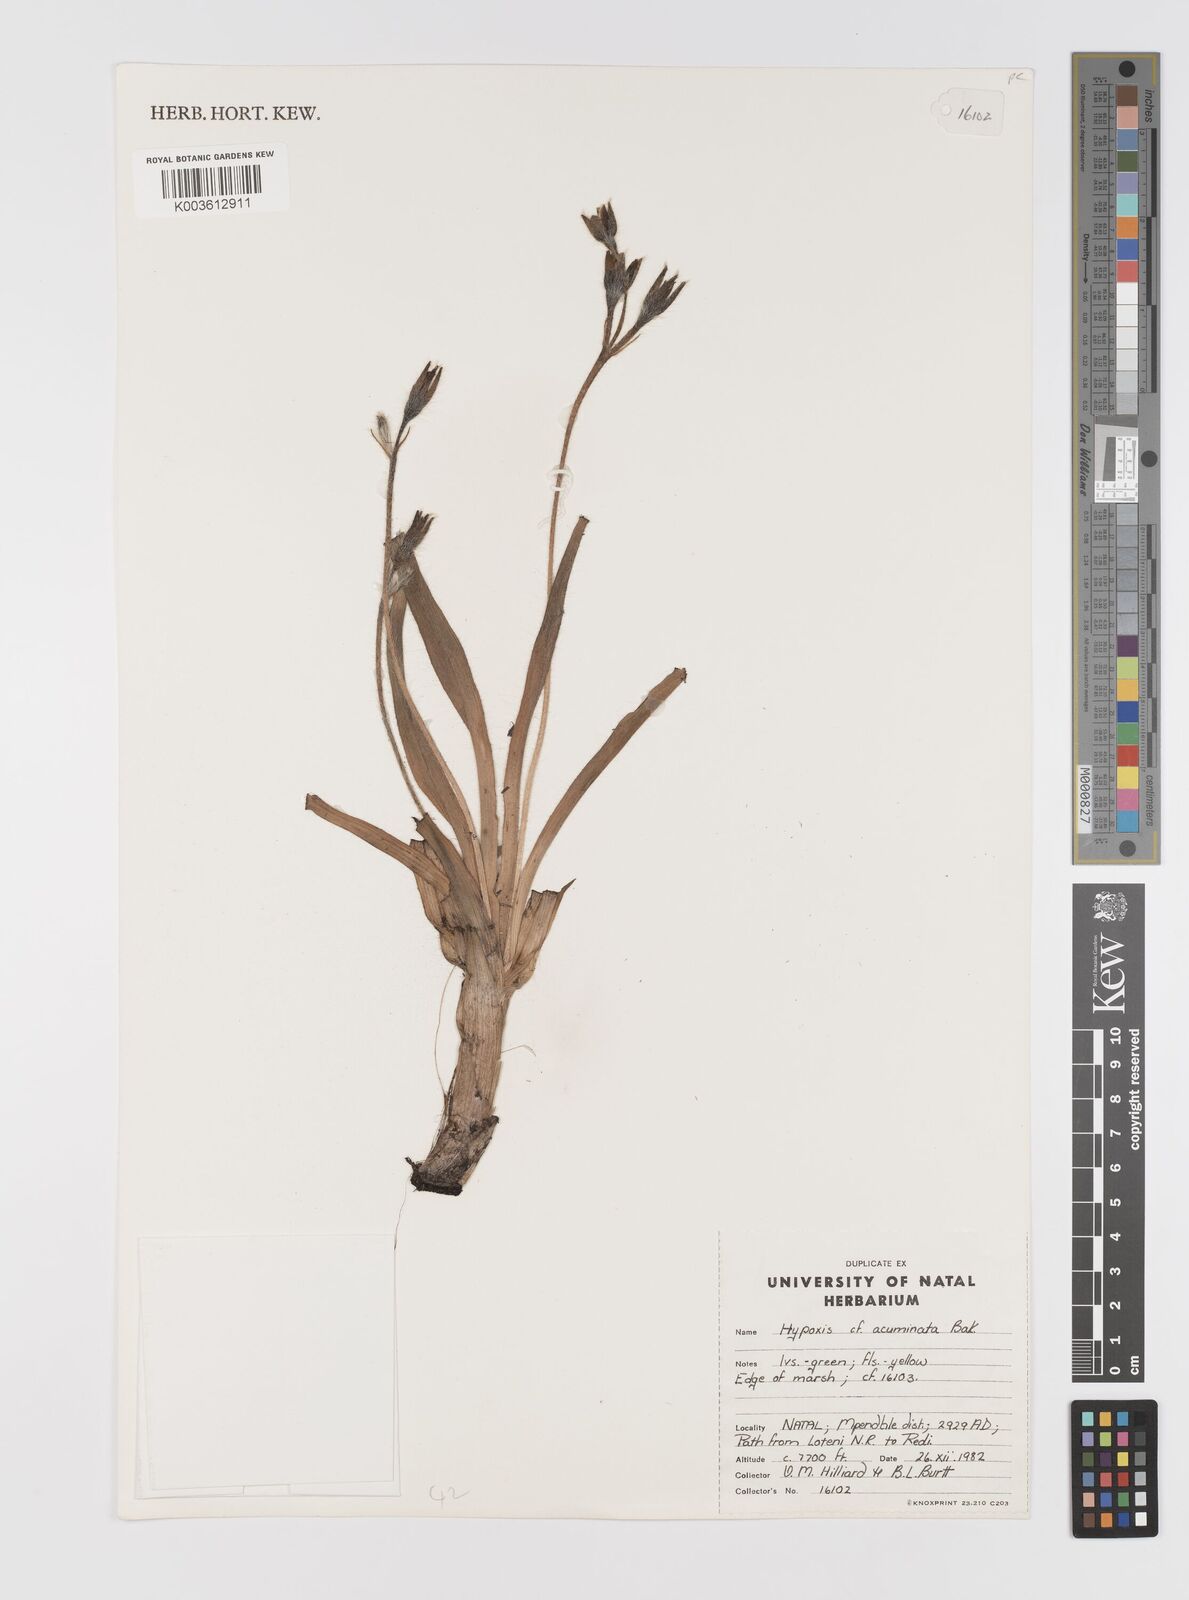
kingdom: Plantae
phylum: Tracheophyta
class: Liliopsida
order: Asparagales
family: Hypoxidaceae
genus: Hypoxis
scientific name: Hypoxis acuminata
